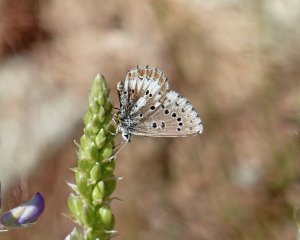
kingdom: Animalia
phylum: Arthropoda
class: Insecta
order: Lepidoptera
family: Lycaenidae
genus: Glaucopsyche
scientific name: Glaucopsyche piasus
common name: Arrowhead Blue
